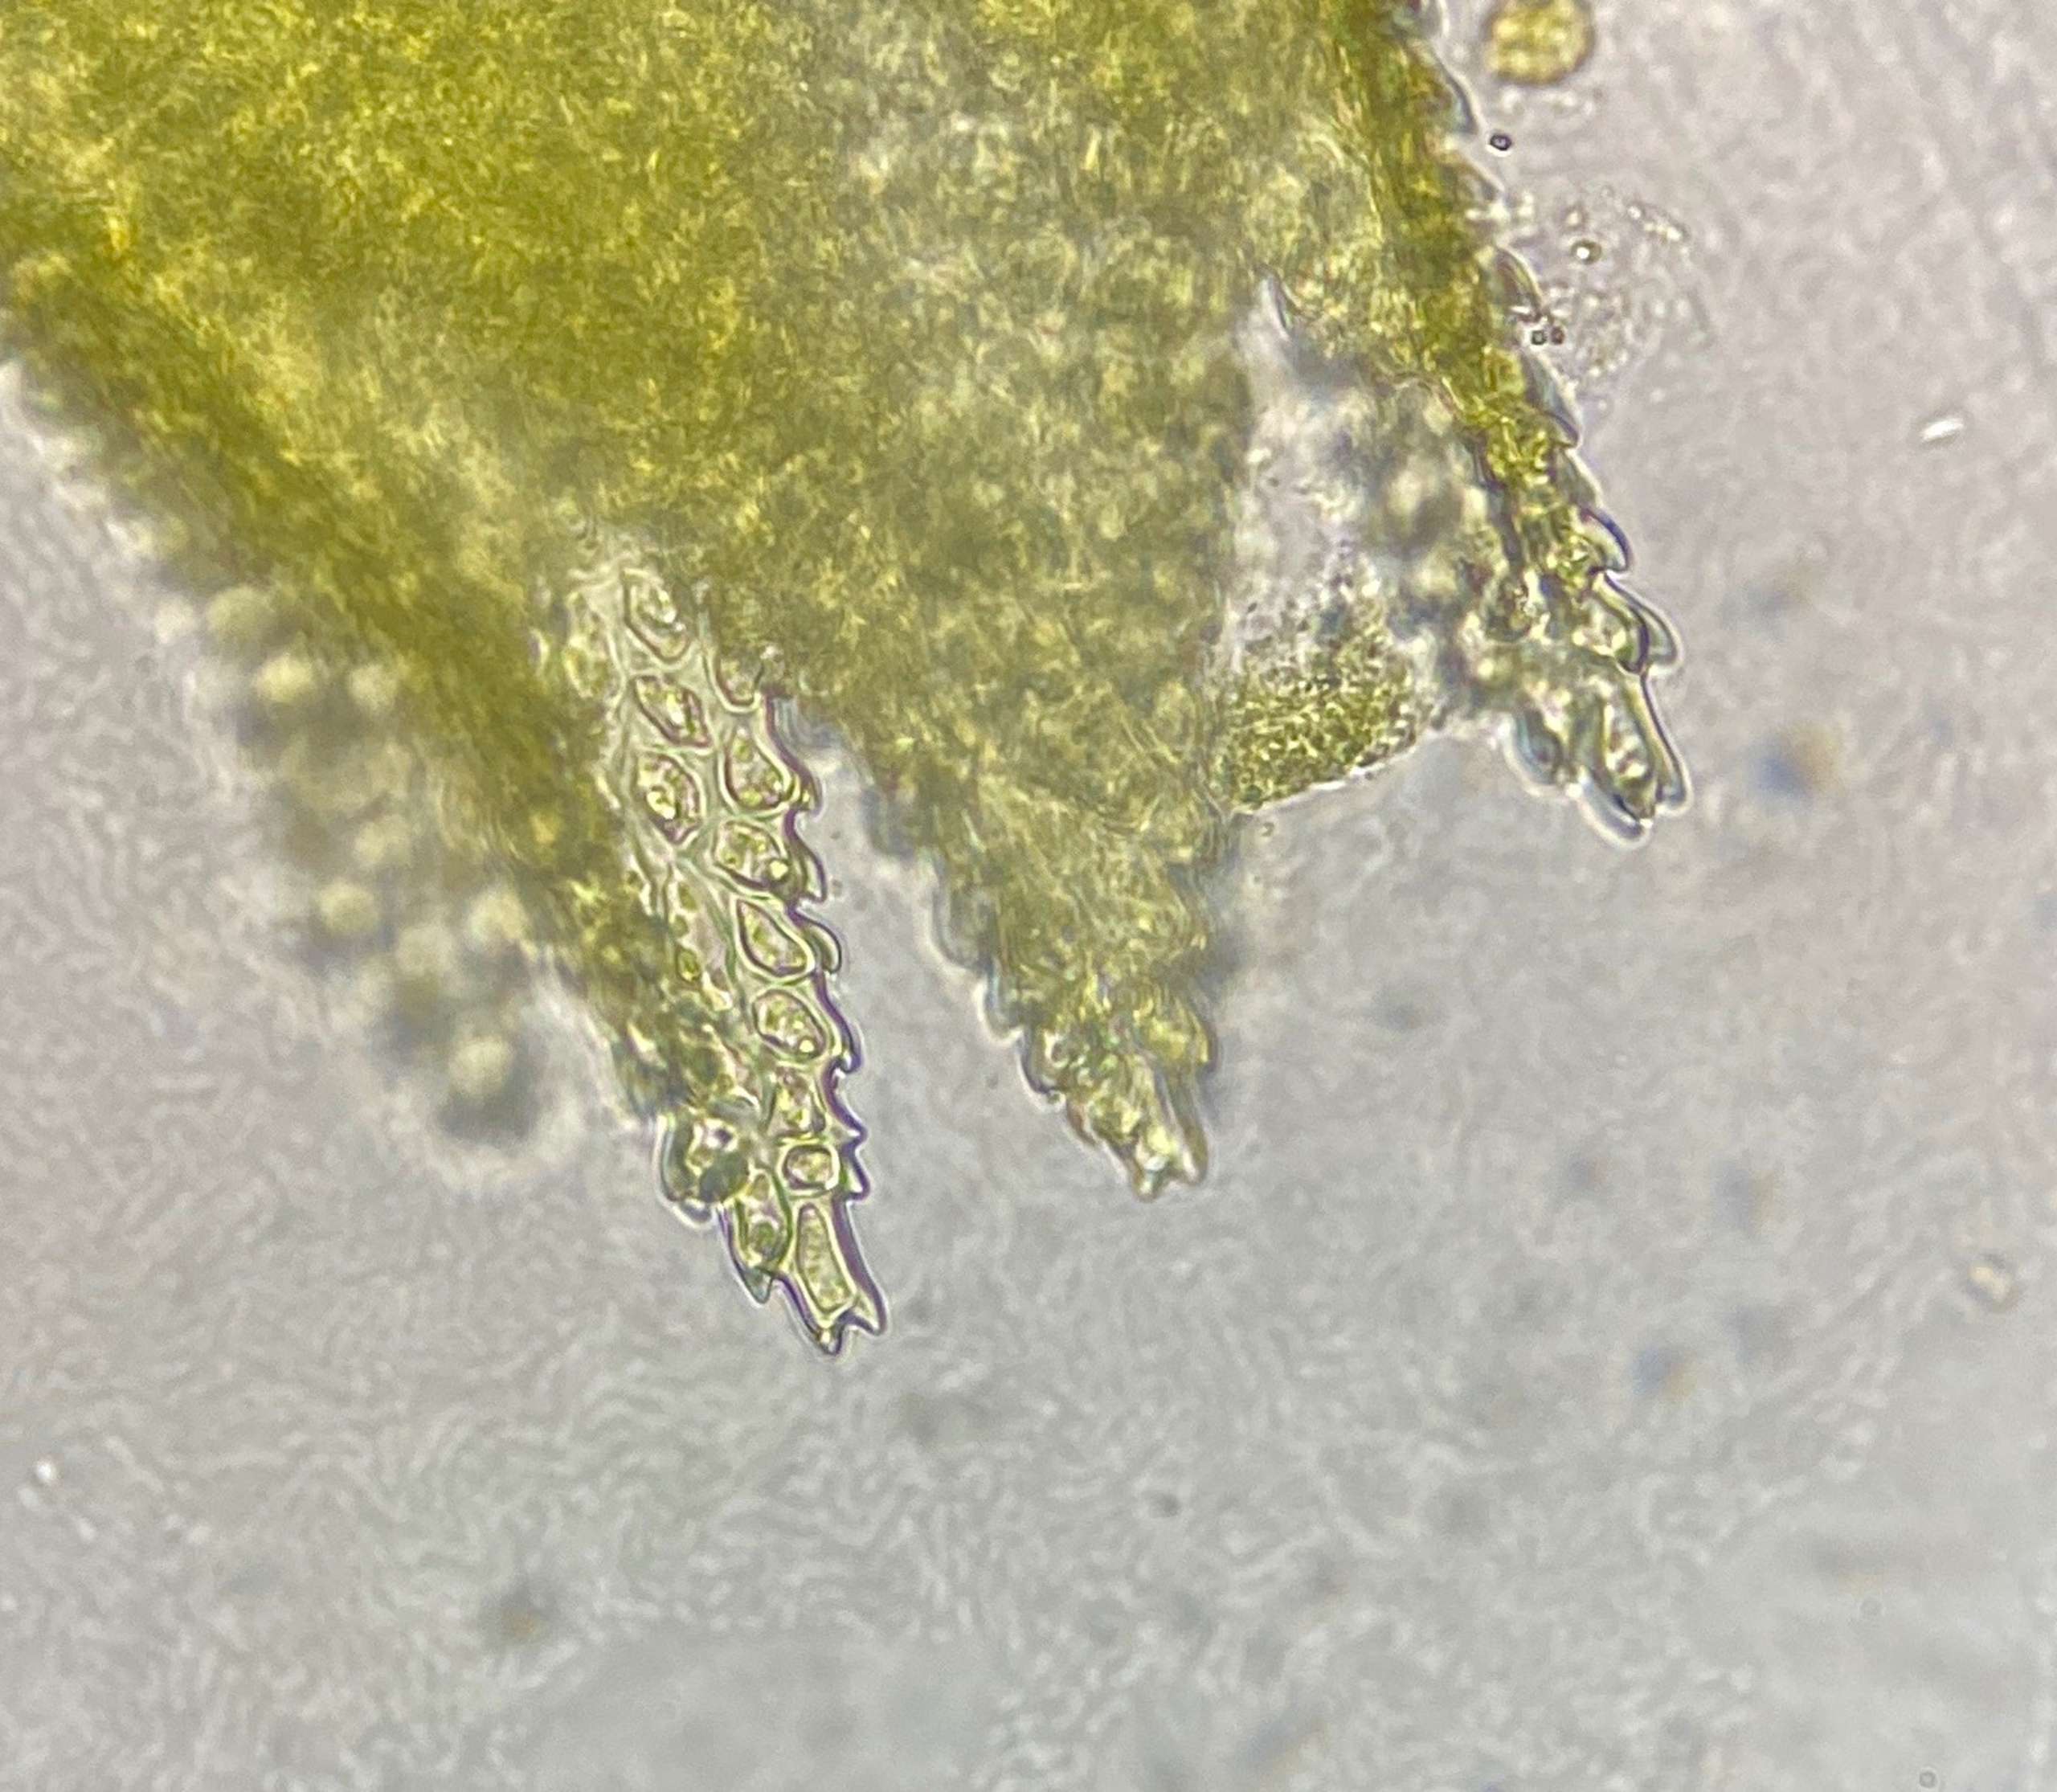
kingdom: Plantae
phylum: Bryophyta
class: Bryopsida
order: Hypnales
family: Thuidiaceae
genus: Thuidium
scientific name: Thuidium delicatulum
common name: Fingrenet bregnemos
